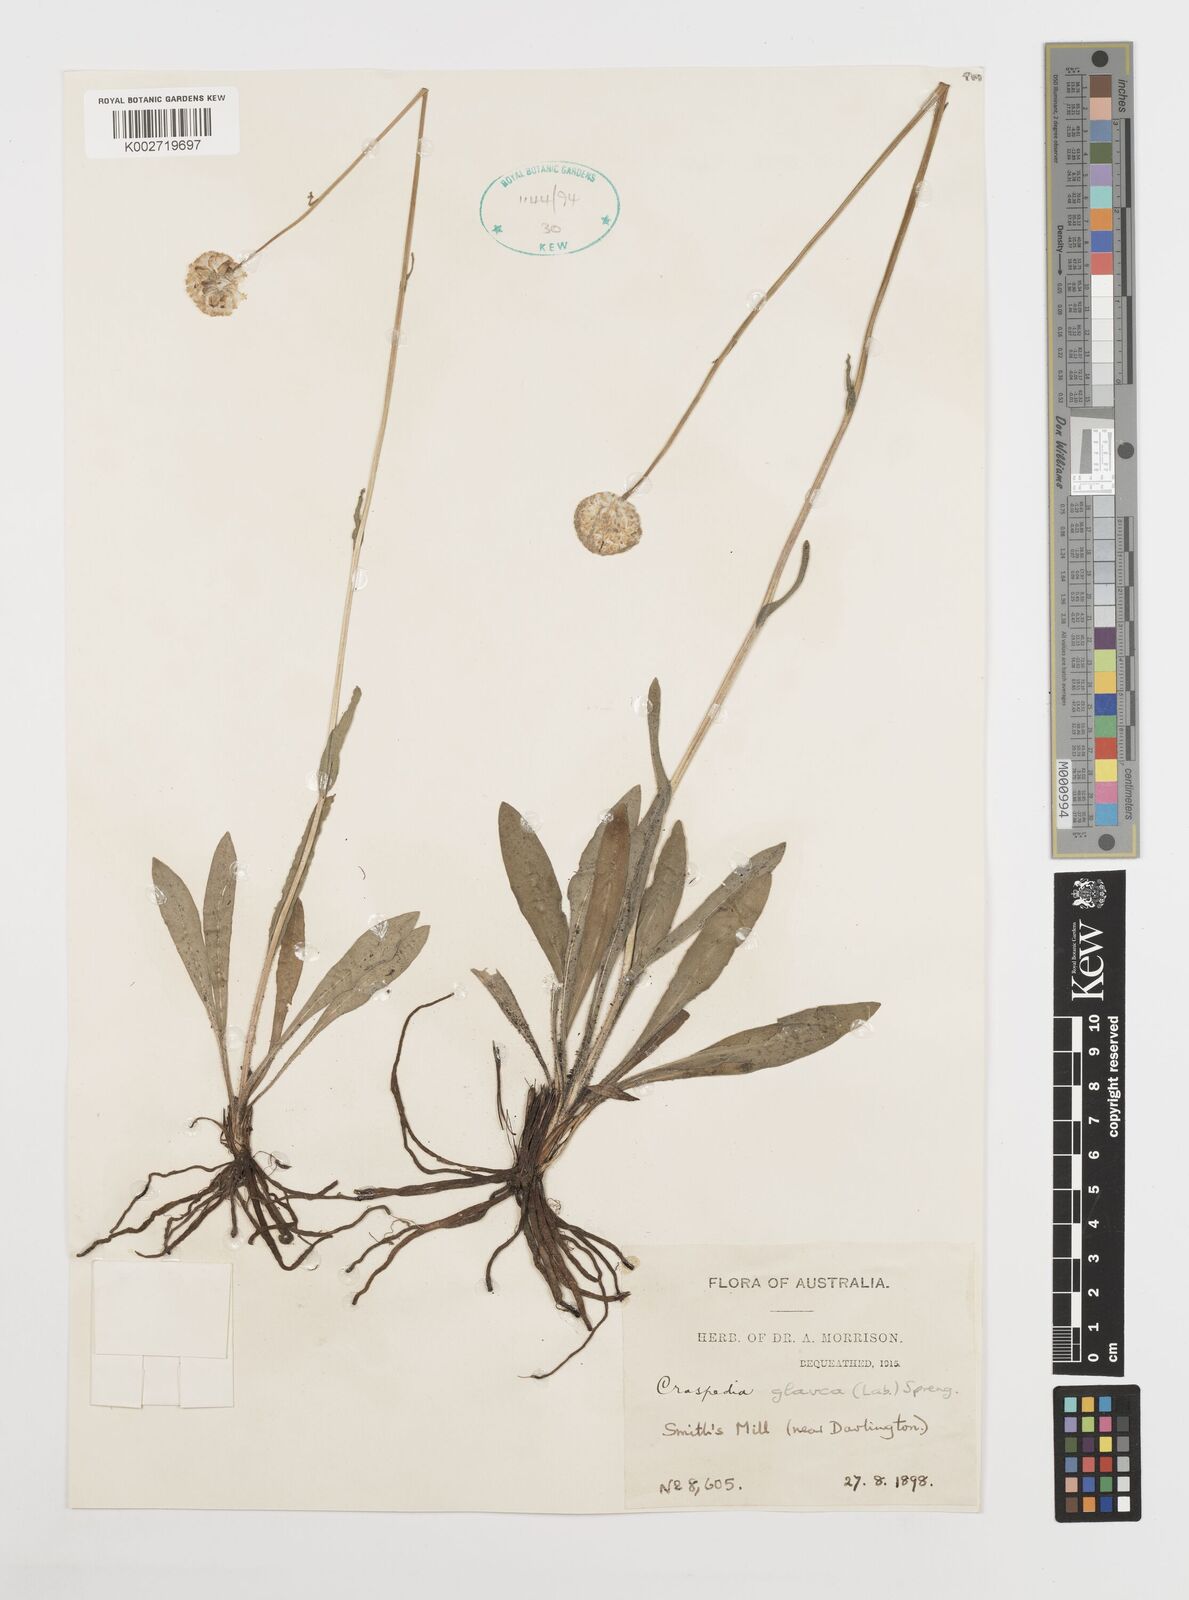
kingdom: Plantae
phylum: Tracheophyta
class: Magnoliopsida
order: Asterales
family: Asteraceae
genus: Craspedia
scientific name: Craspedia glauca
